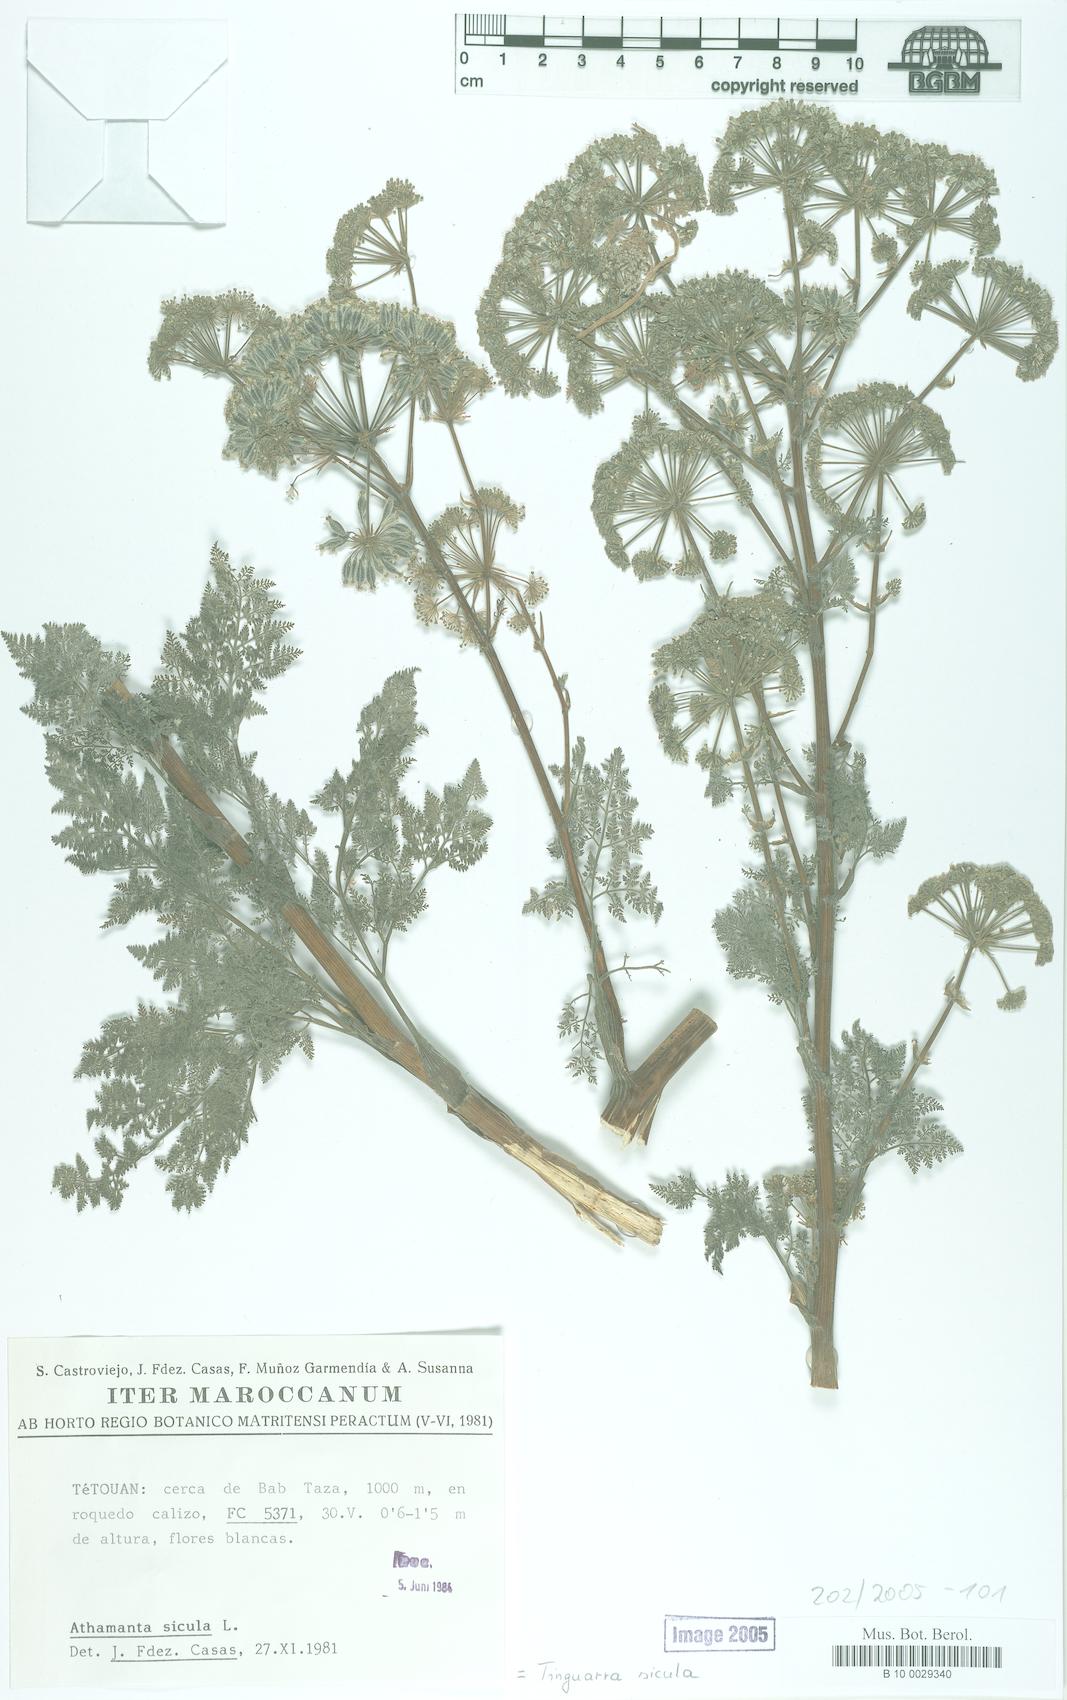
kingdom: Plantae
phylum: Tracheophyta
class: Magnoliopsida
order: Apiales
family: Apiaceae
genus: Athamanta
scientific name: Athamanta sicula
